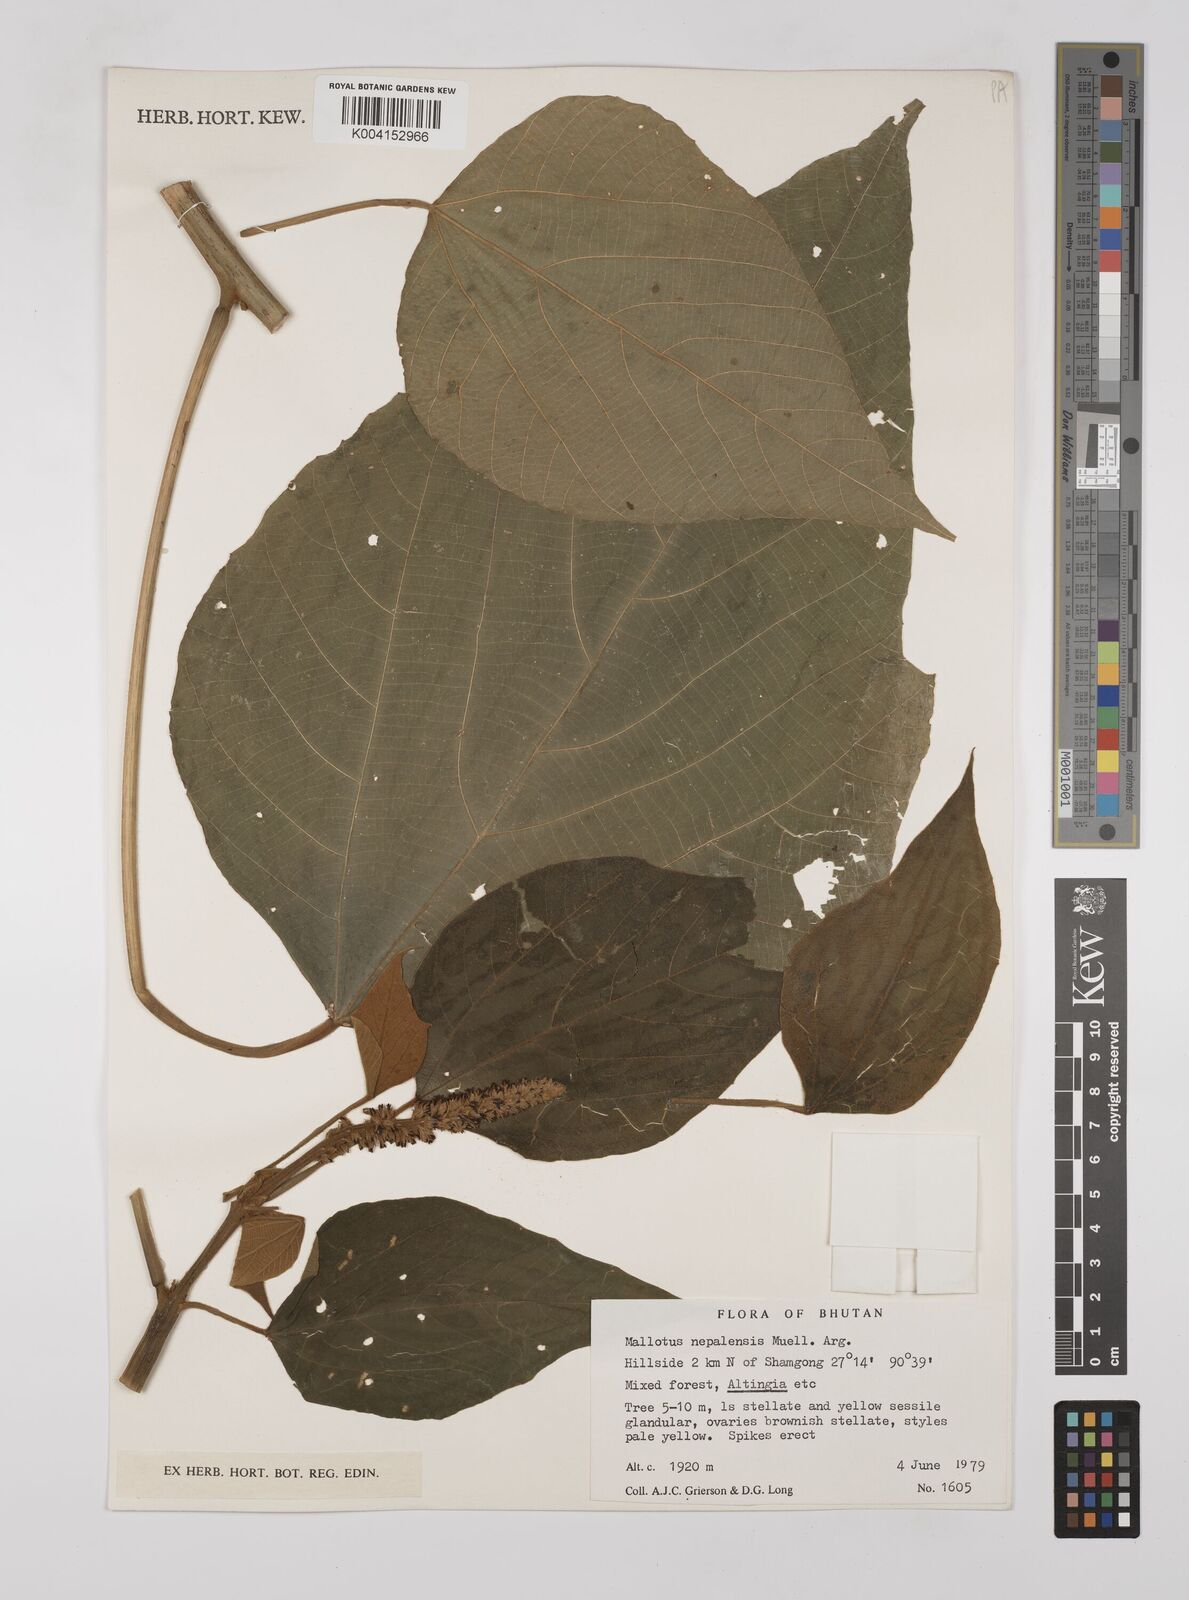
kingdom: Plantae
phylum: Tracheophyta
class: Magnoliopsida
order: Malpighiales
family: Euphorbiaceae
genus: Mallotus
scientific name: Mallotus nepalensis
